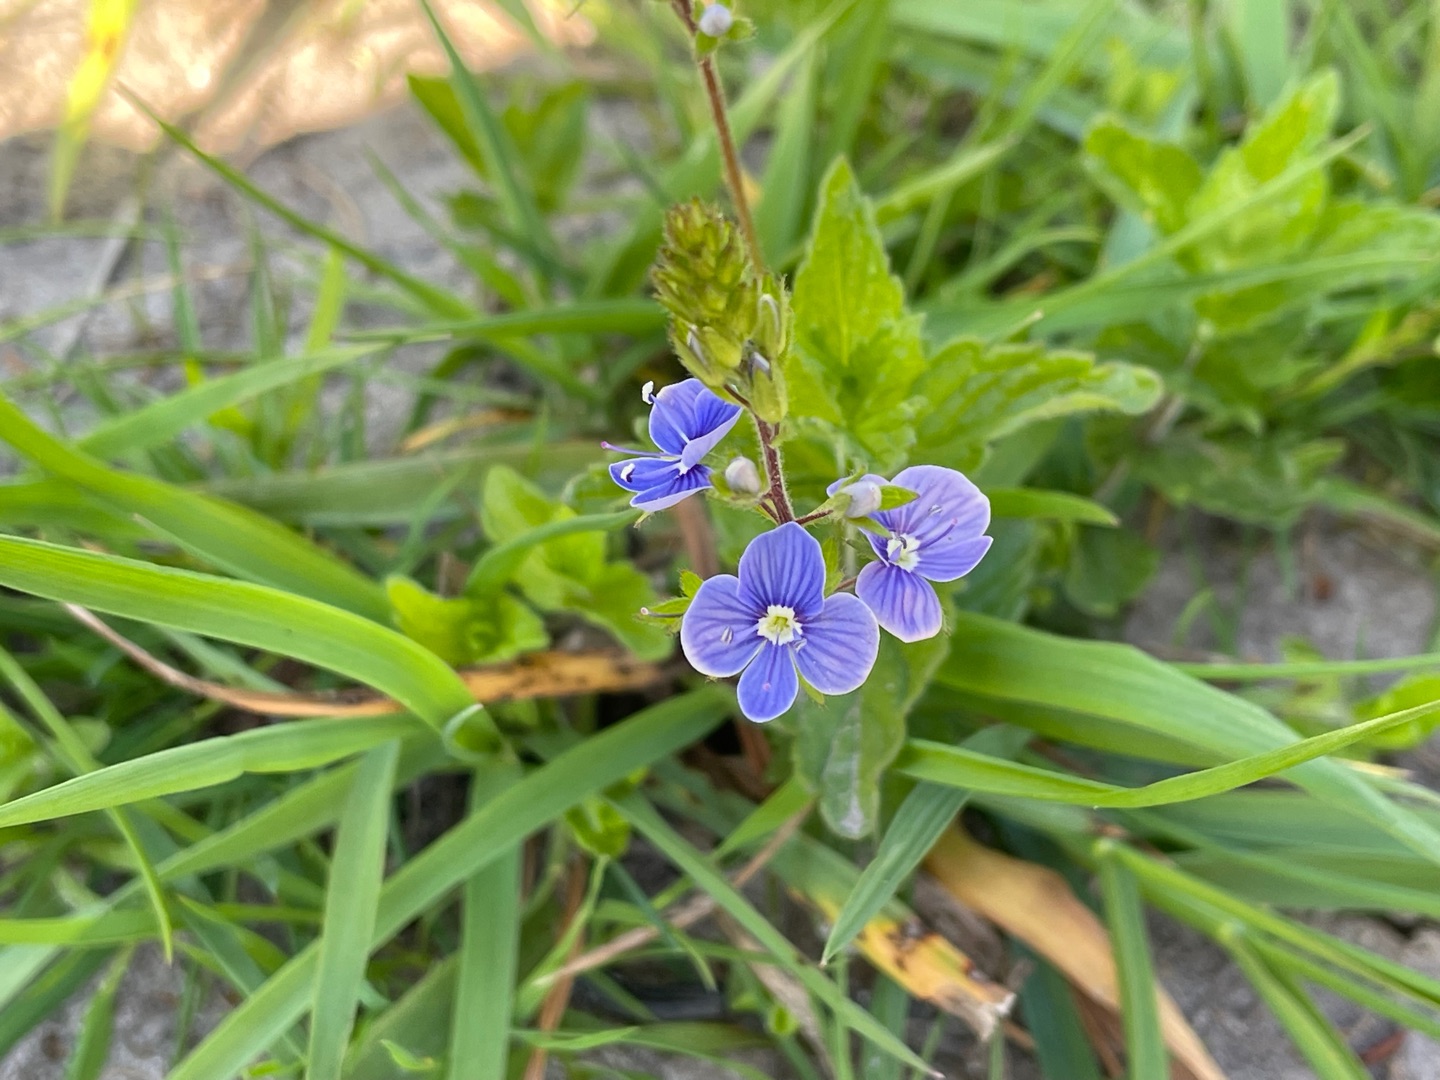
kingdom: Plantae
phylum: Tracheophyta
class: Magnoliopsida
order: Lamiales
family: Plantaginaceae
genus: Veronica
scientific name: Veronica chamaedrys
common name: Tveskægget ærenpris
